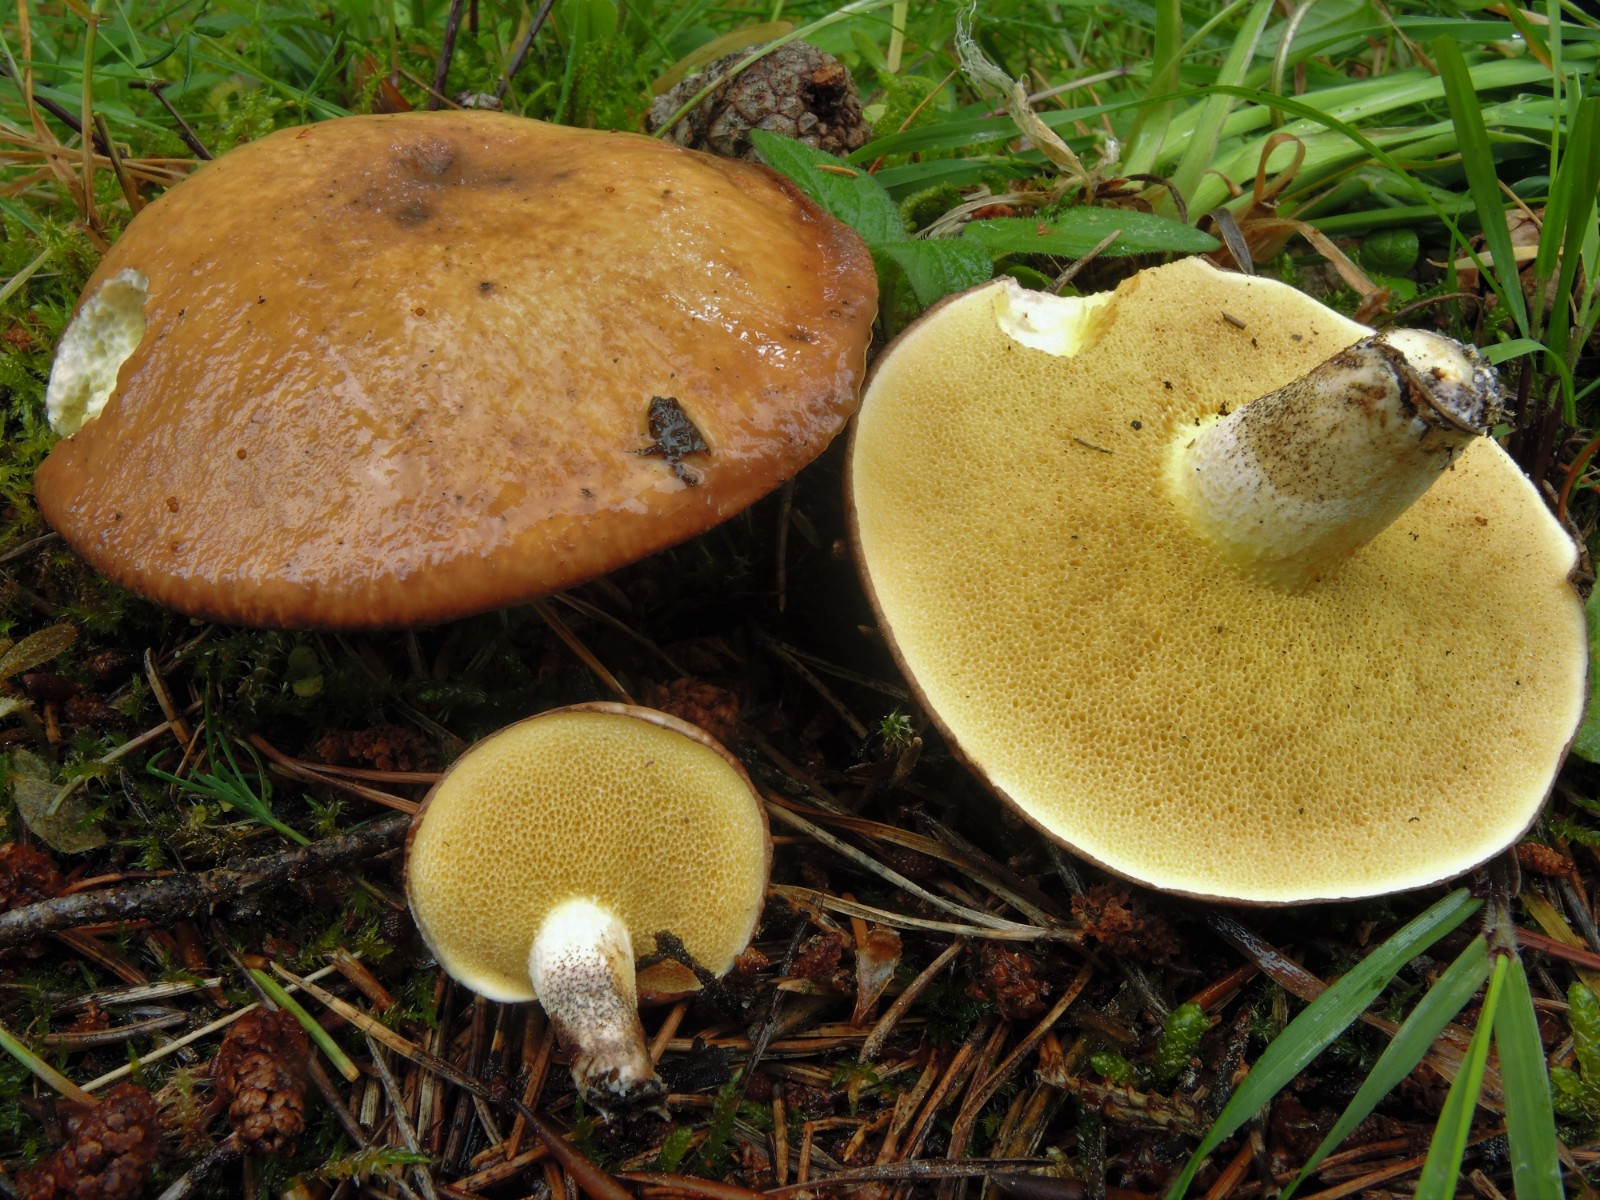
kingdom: Fungi
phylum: Basidiomycota
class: Agaricomycetes
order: Boletales
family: Suillaceae
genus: Suillus
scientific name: Suillus granulatus
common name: kornet slimrørhat
